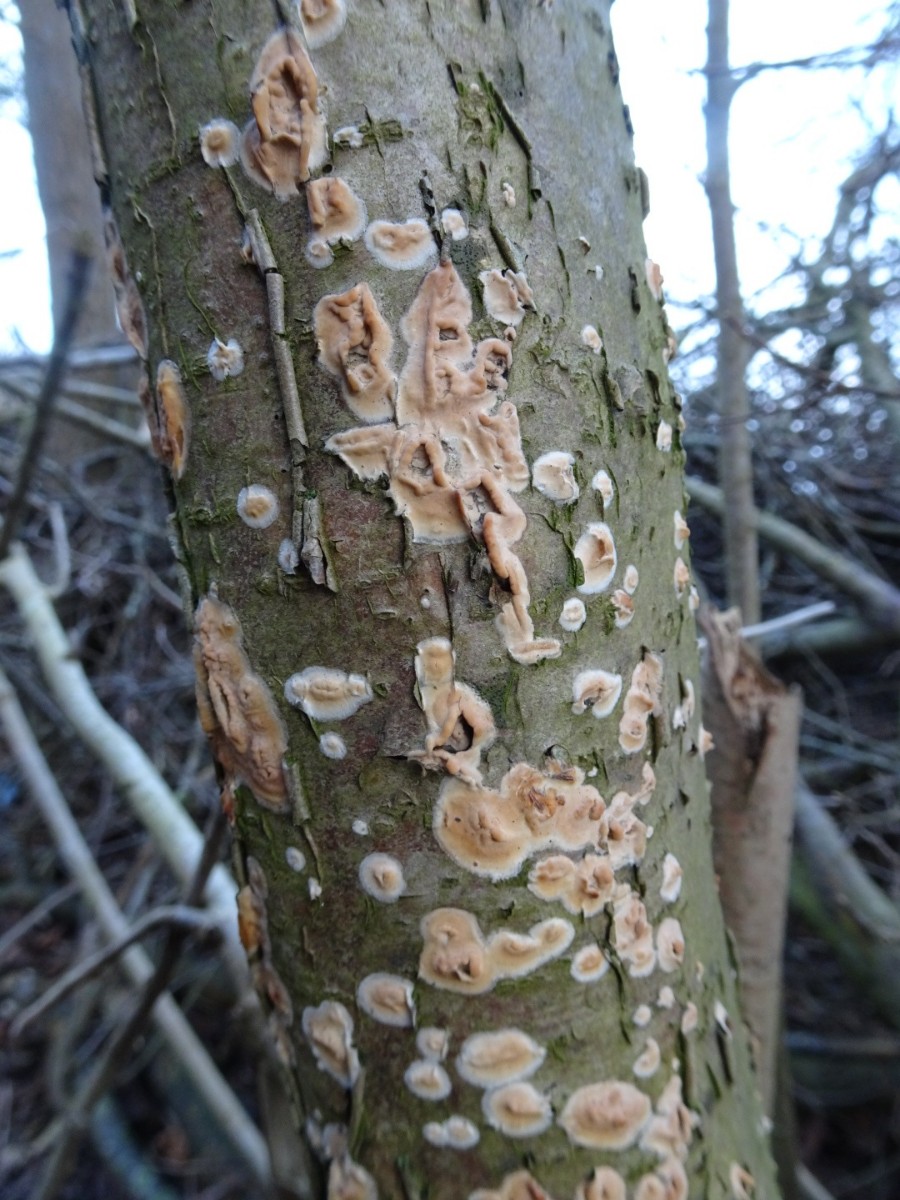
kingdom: Fungi
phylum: Basidiomycota
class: Agaricomycetes
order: Russulales
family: Stereaceae
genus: Stereum
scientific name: Stereum rugosum
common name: rynket lædersvamp
